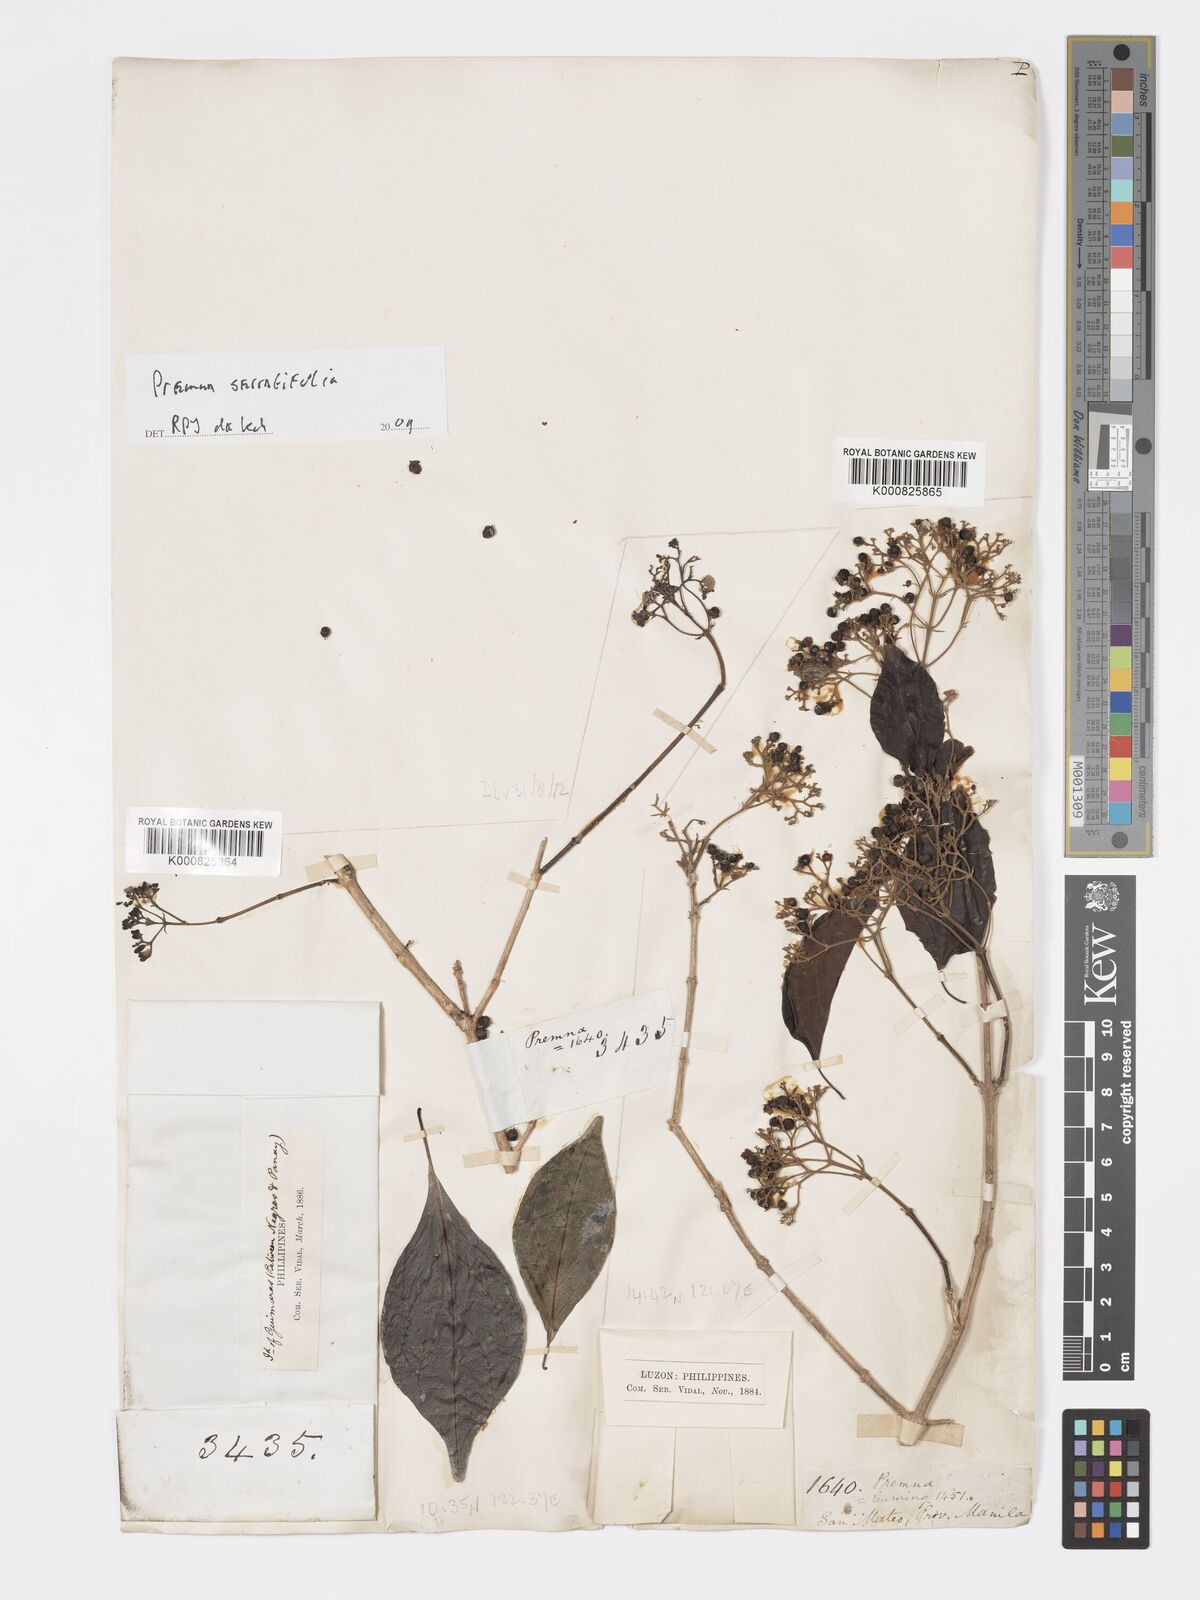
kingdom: Plantae
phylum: Tracheophyta
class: Magnoliopsida
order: Lamiales
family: Lamiaceae
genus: Premna
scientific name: Premna serratifolia
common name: Bastard guelder
